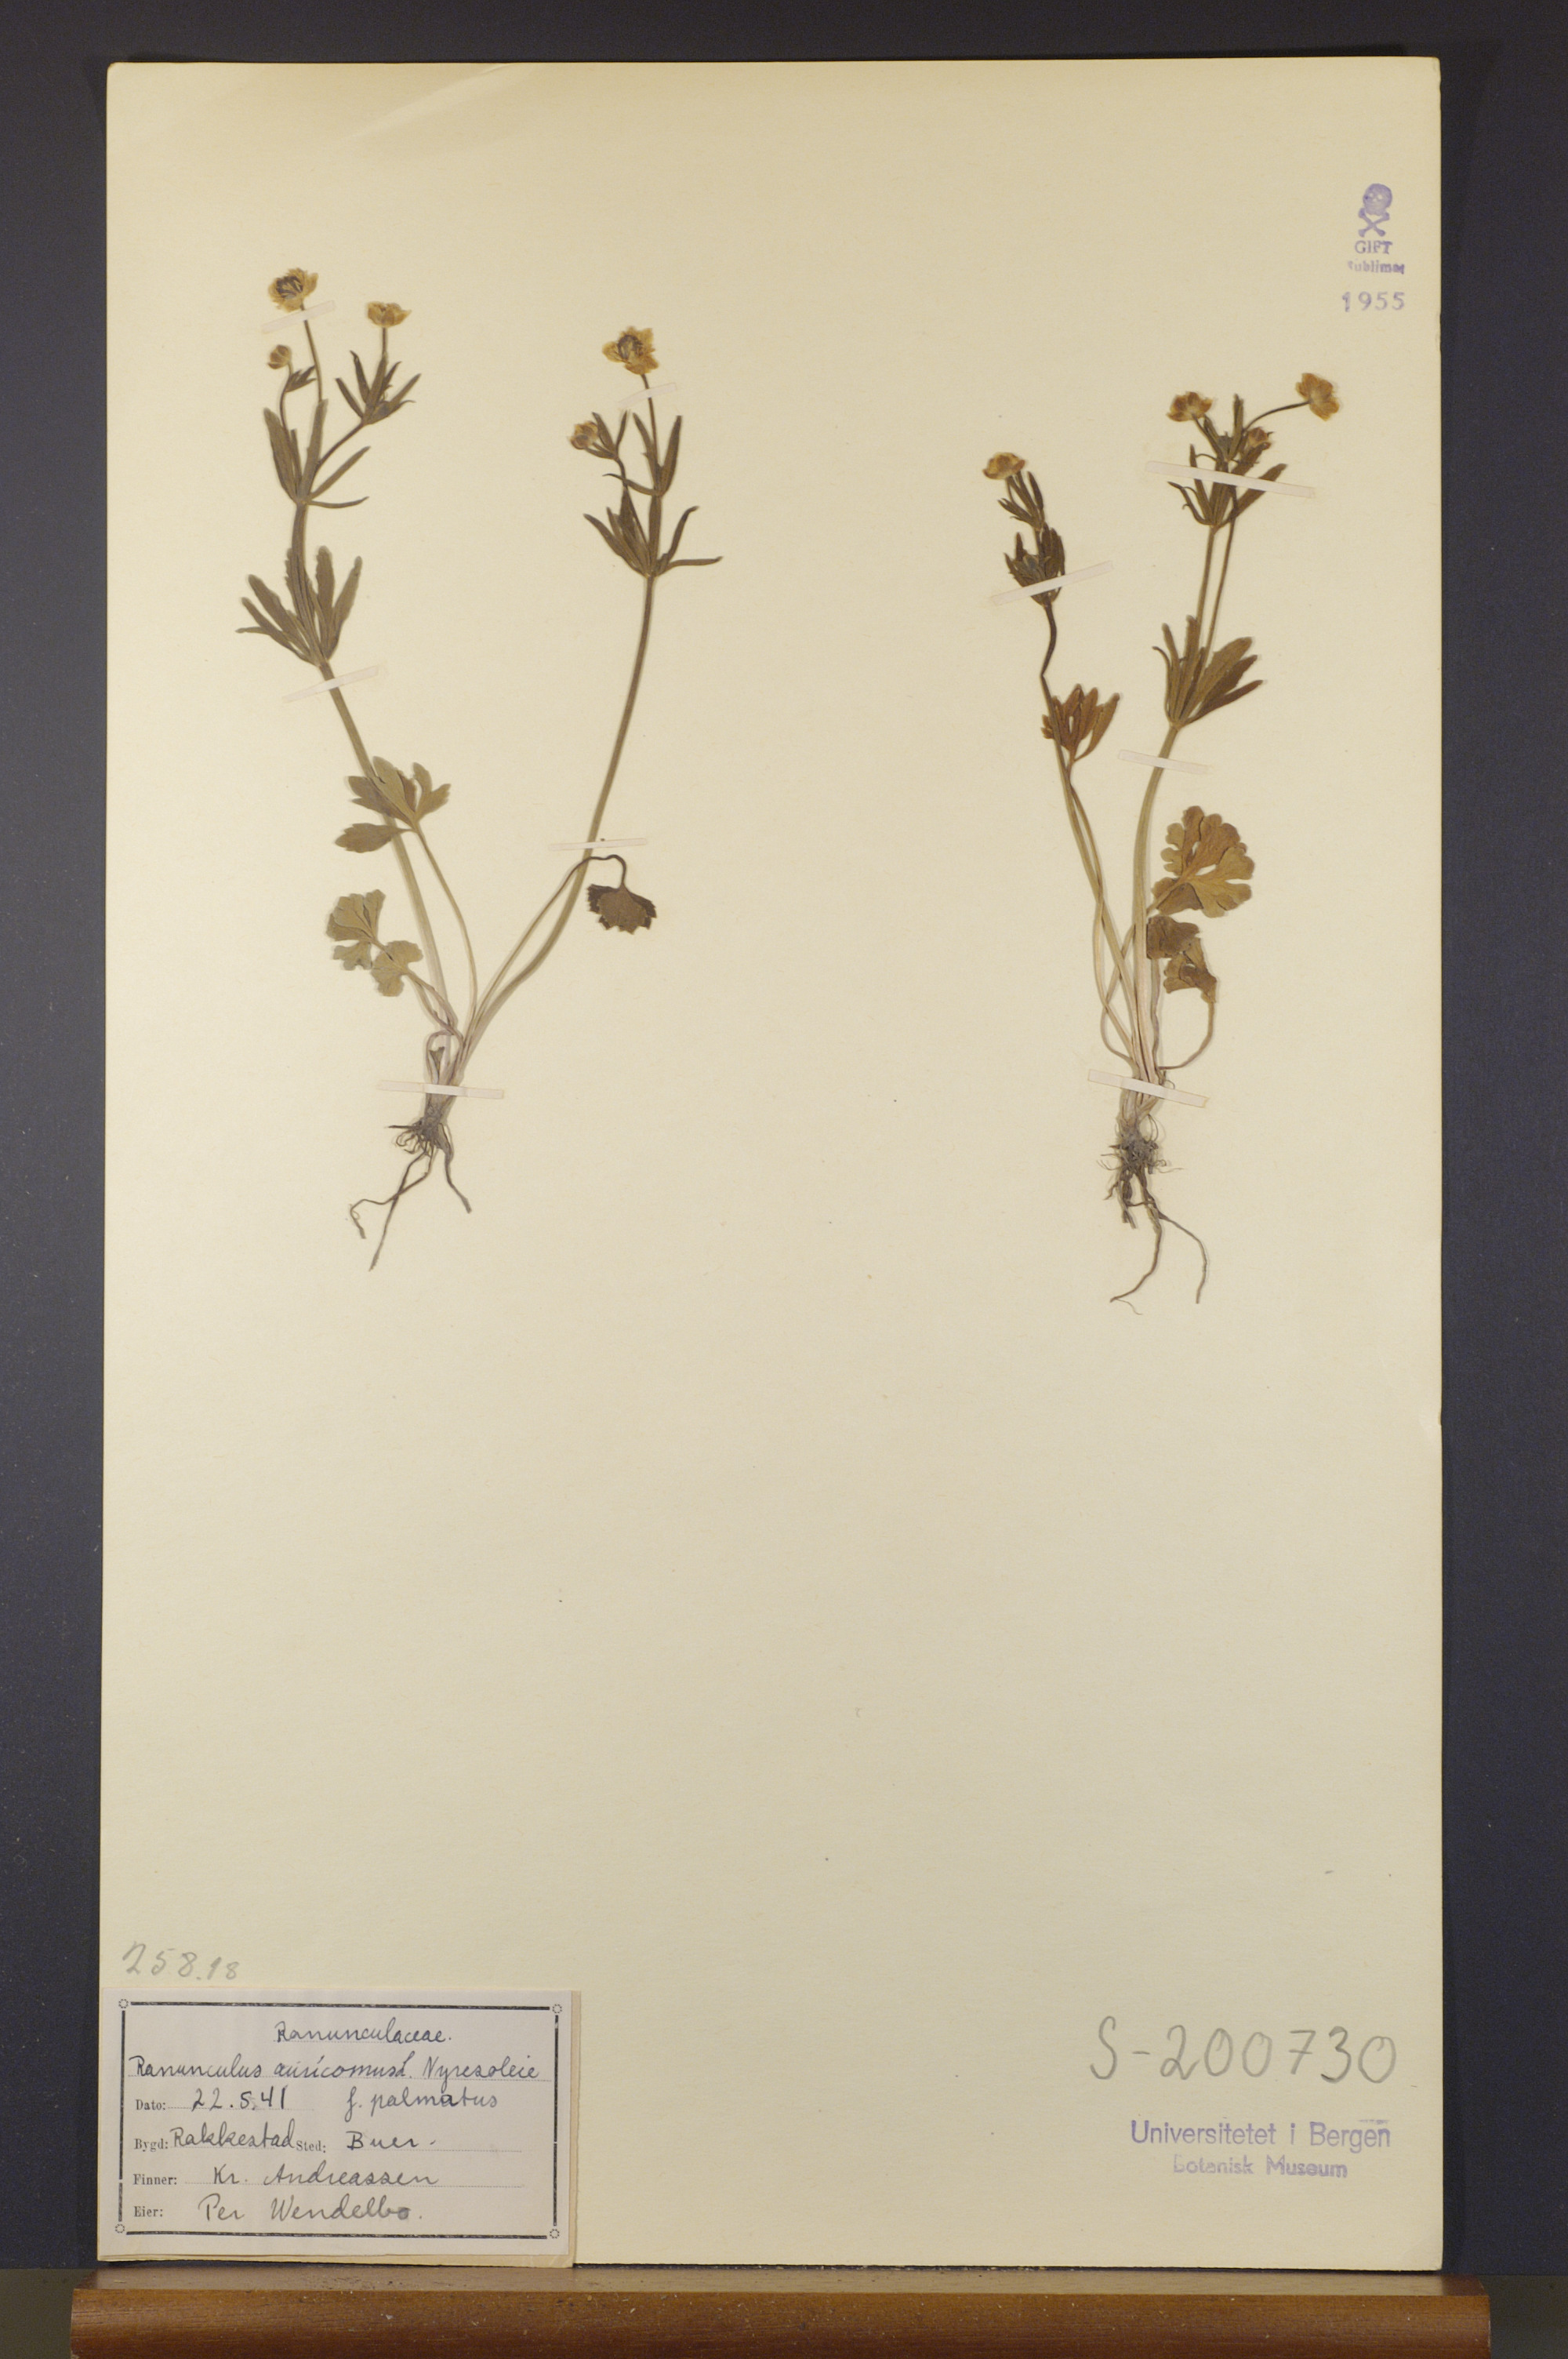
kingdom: Plantae
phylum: Tracheophyta
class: Magnoliopsida
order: Ranunculales
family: Ranunculaceae
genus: Ranunculus
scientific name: Ranunculus auricomus
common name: Goldilocks buttercup
